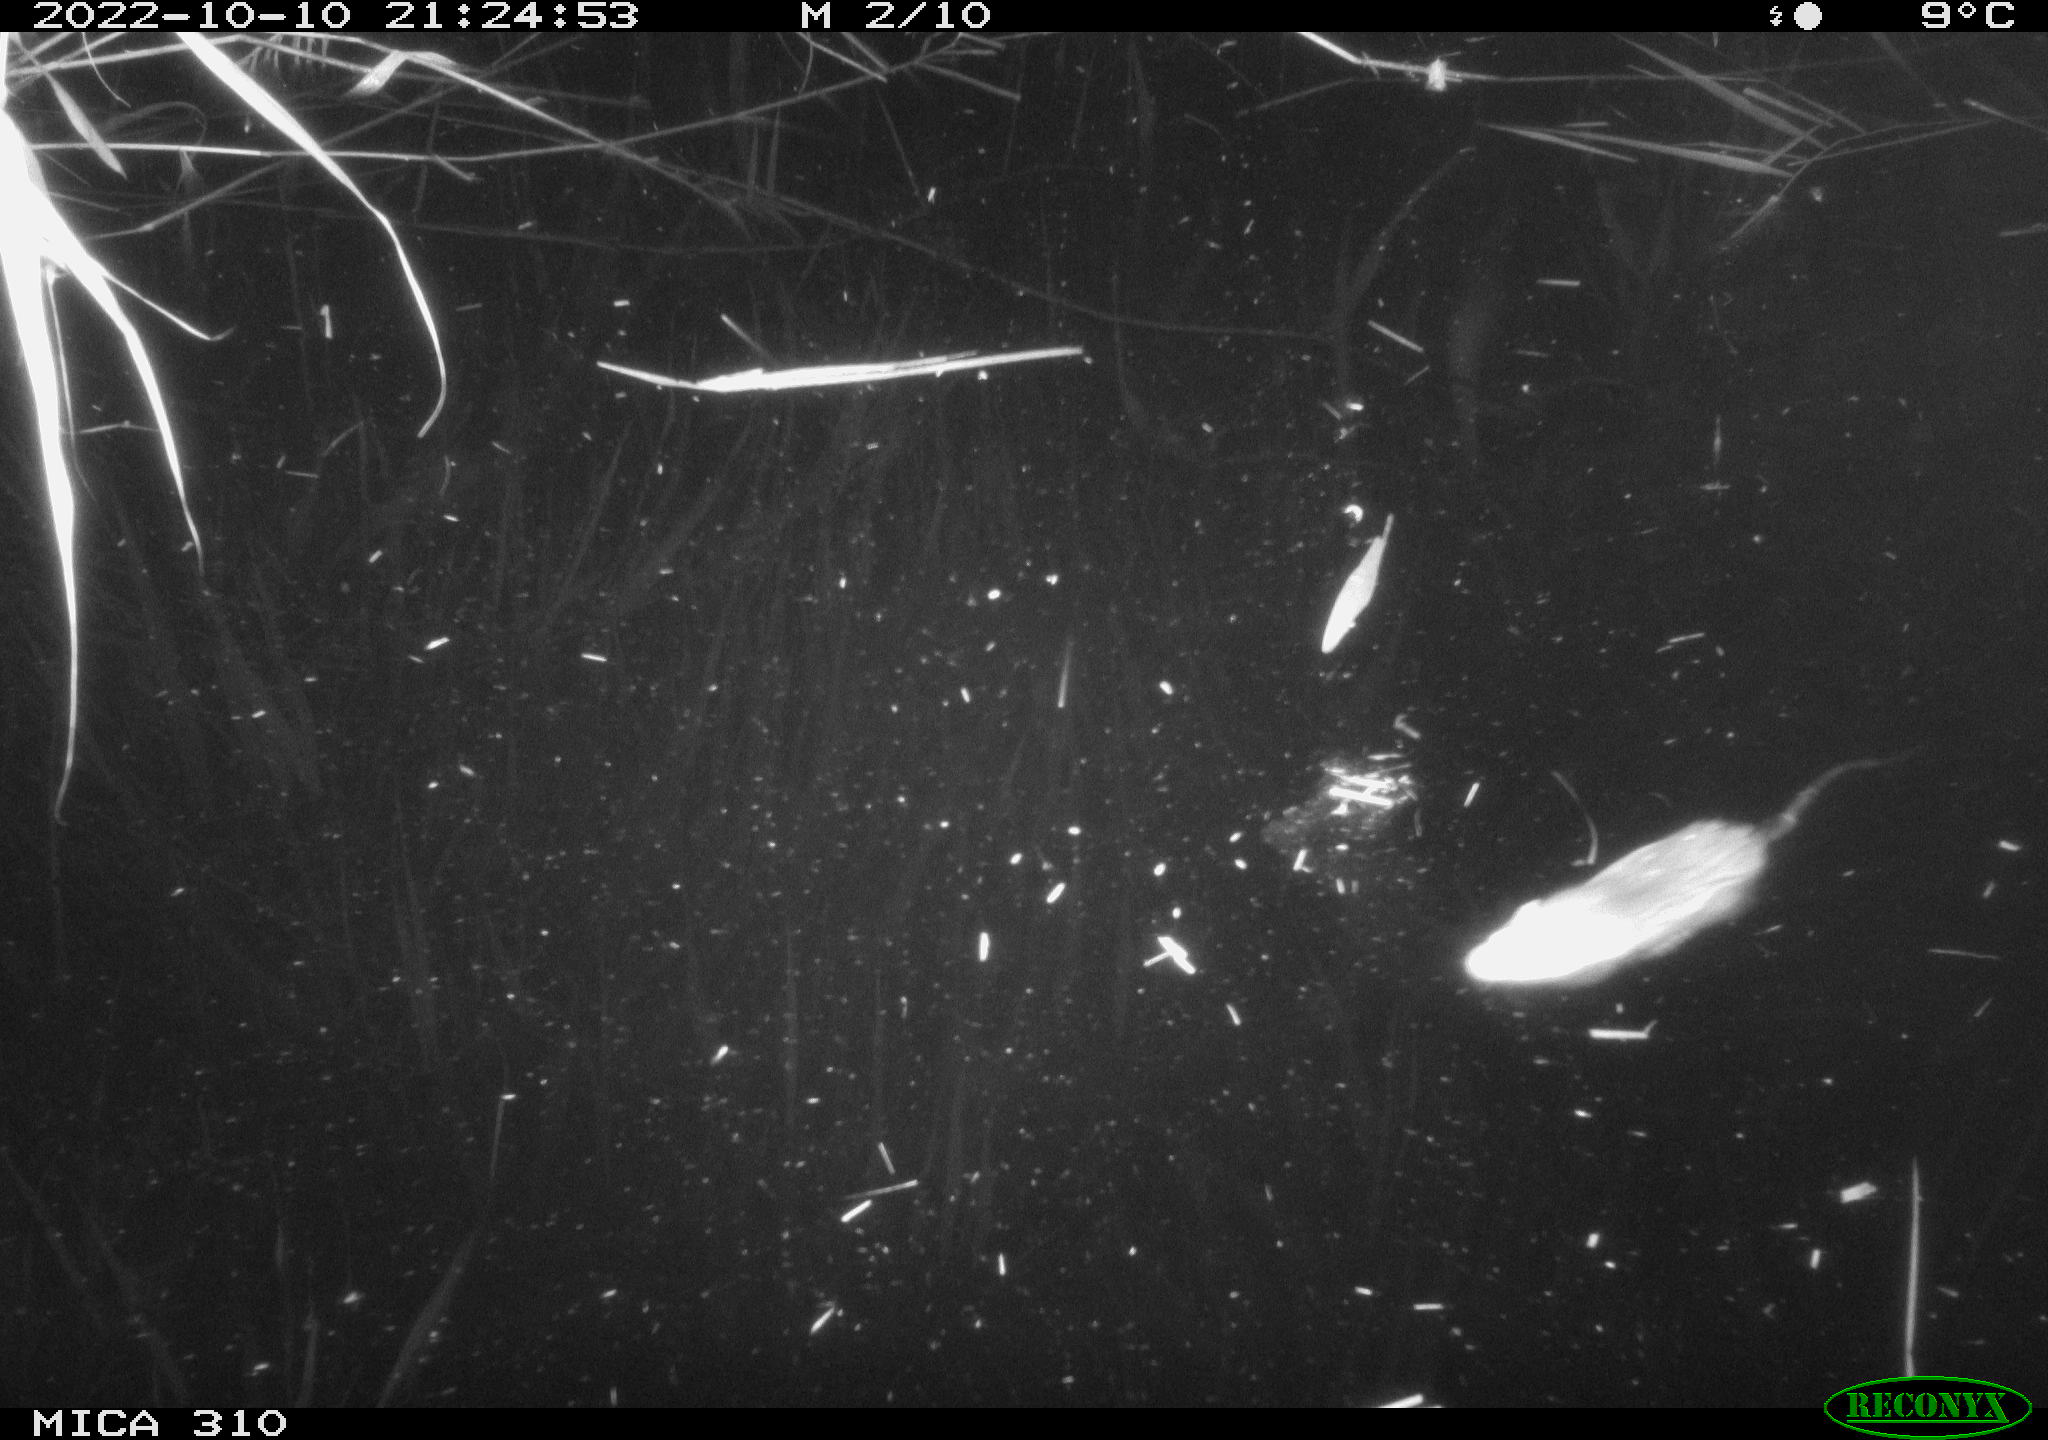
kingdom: Animalia
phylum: Chordata
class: Mammalia
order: Rodentia
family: Muridae
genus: Rattus
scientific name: Rattus norvegicus
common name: Brown rat
